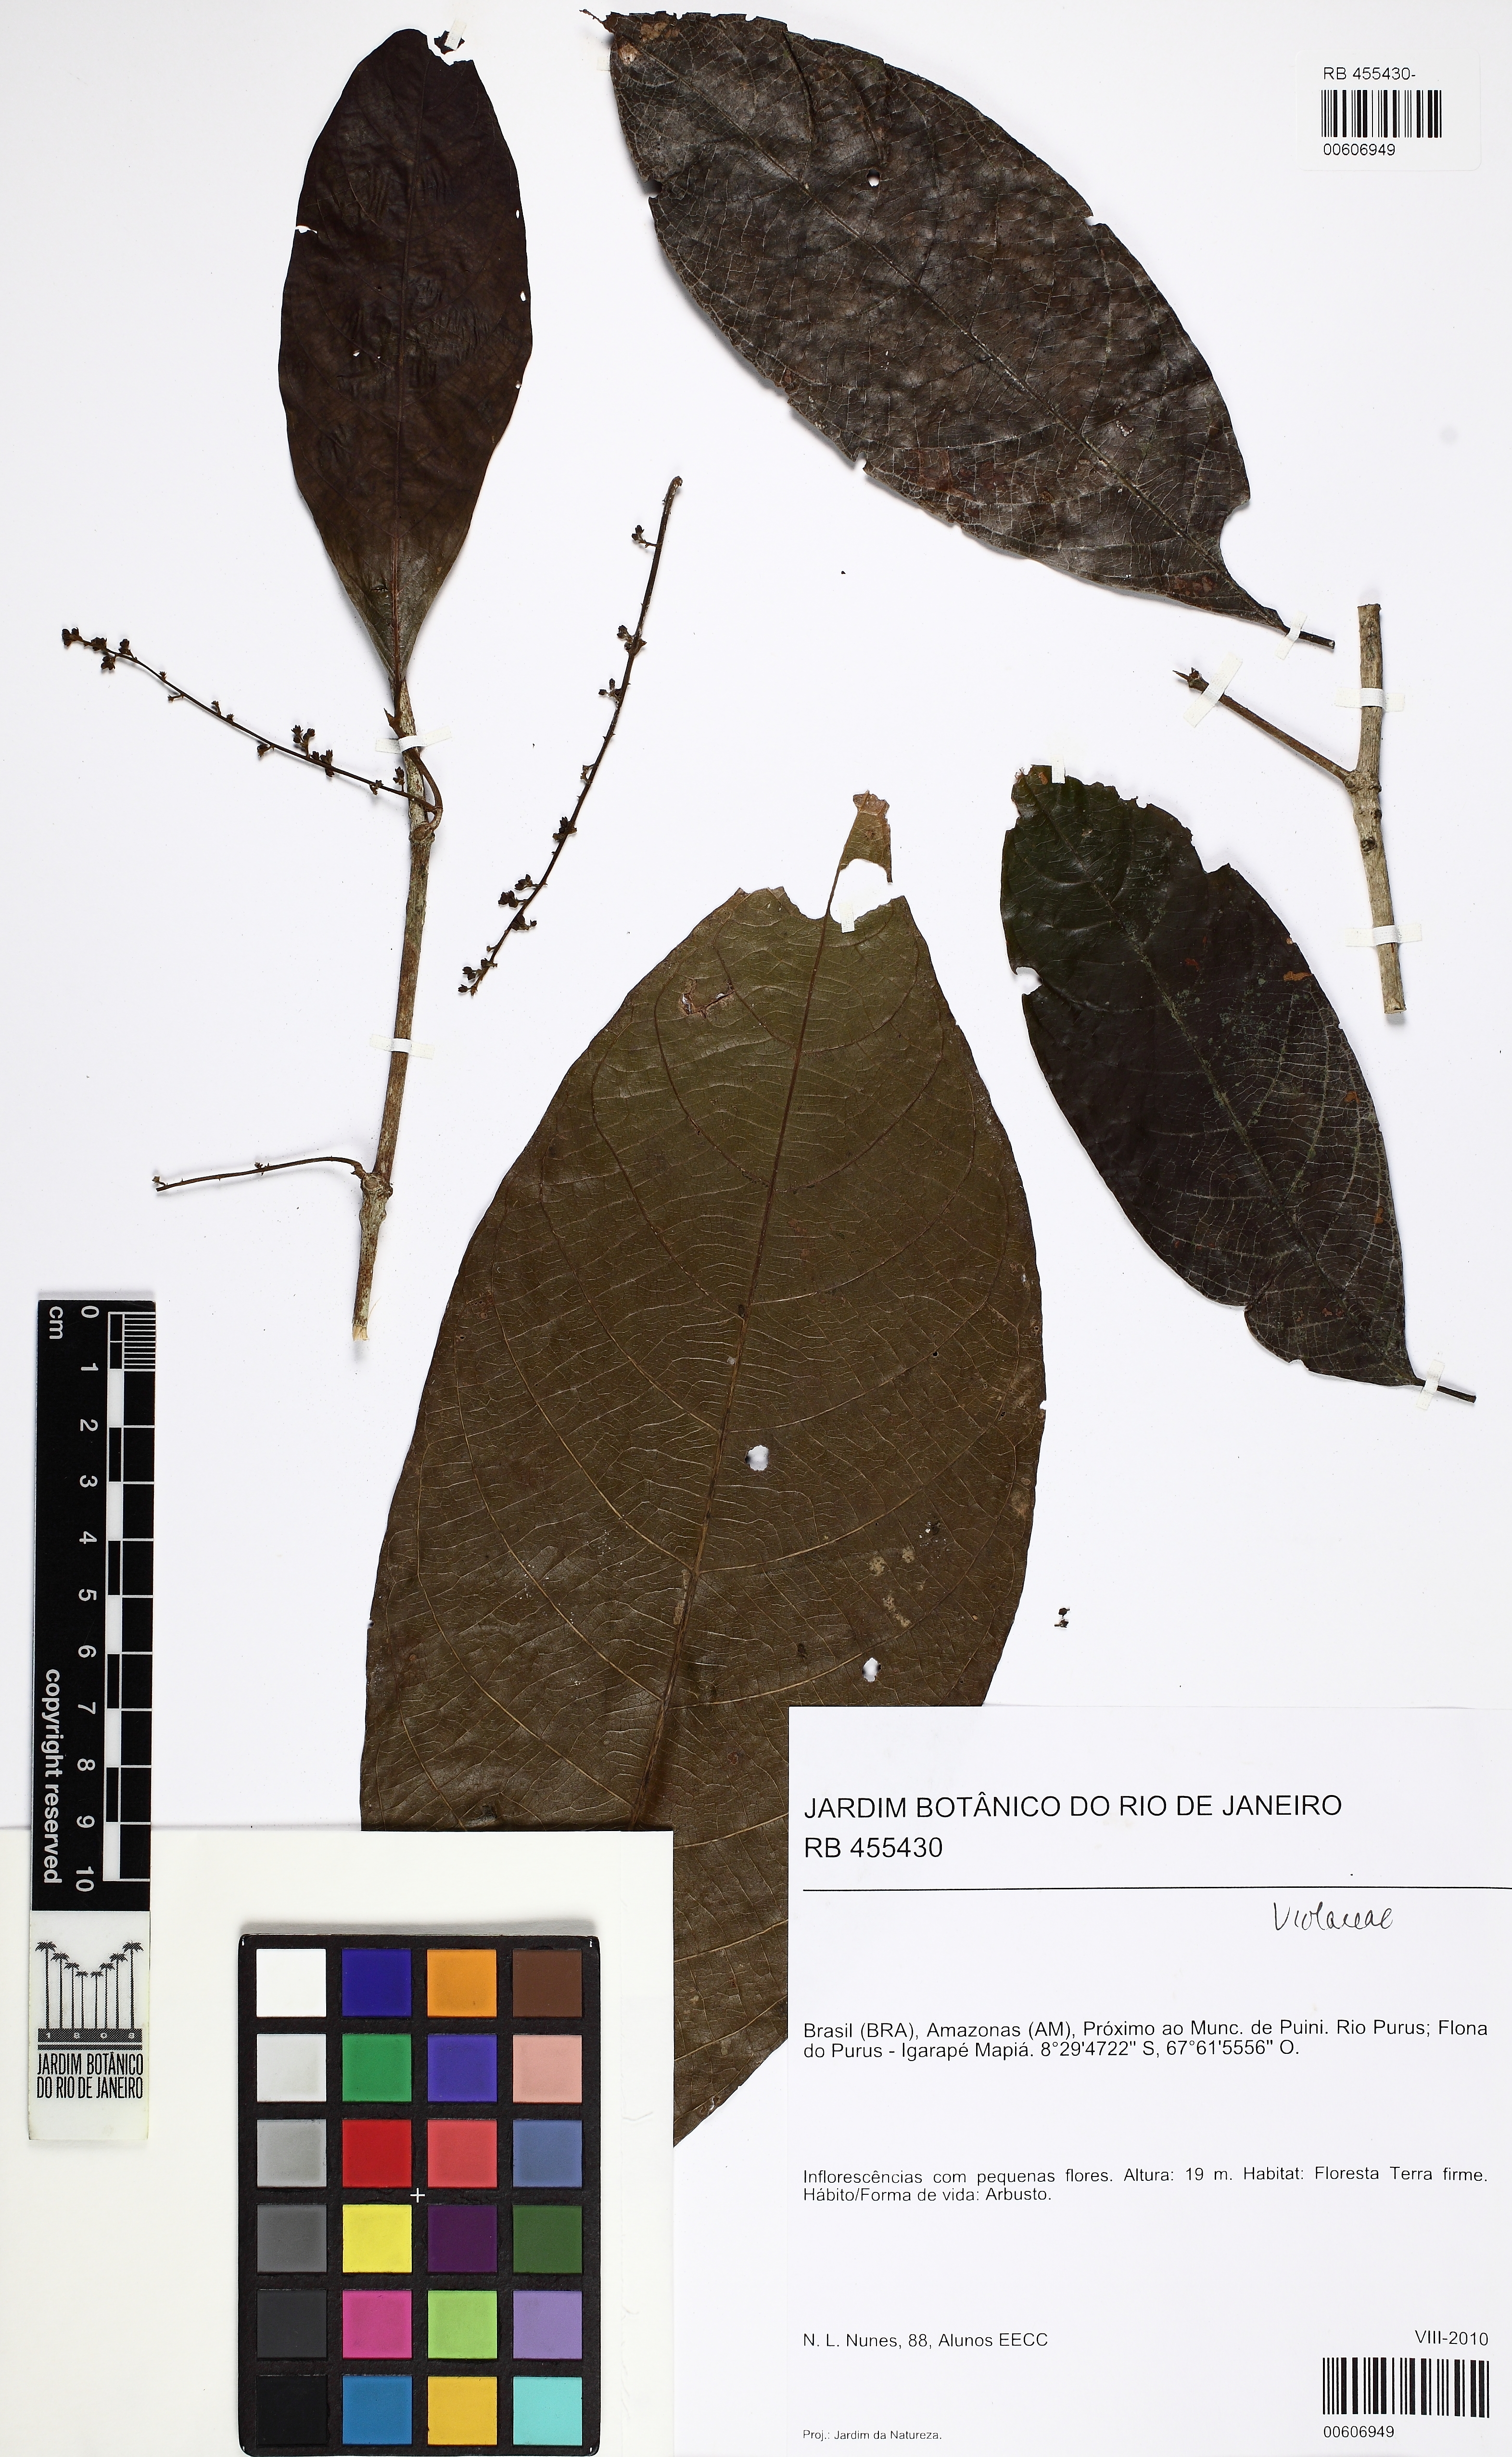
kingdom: Plantae
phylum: Tracheophyta
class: Magnoliopsida
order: Malpighiales
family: Violaceae
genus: Rinorea
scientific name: Rinorea
